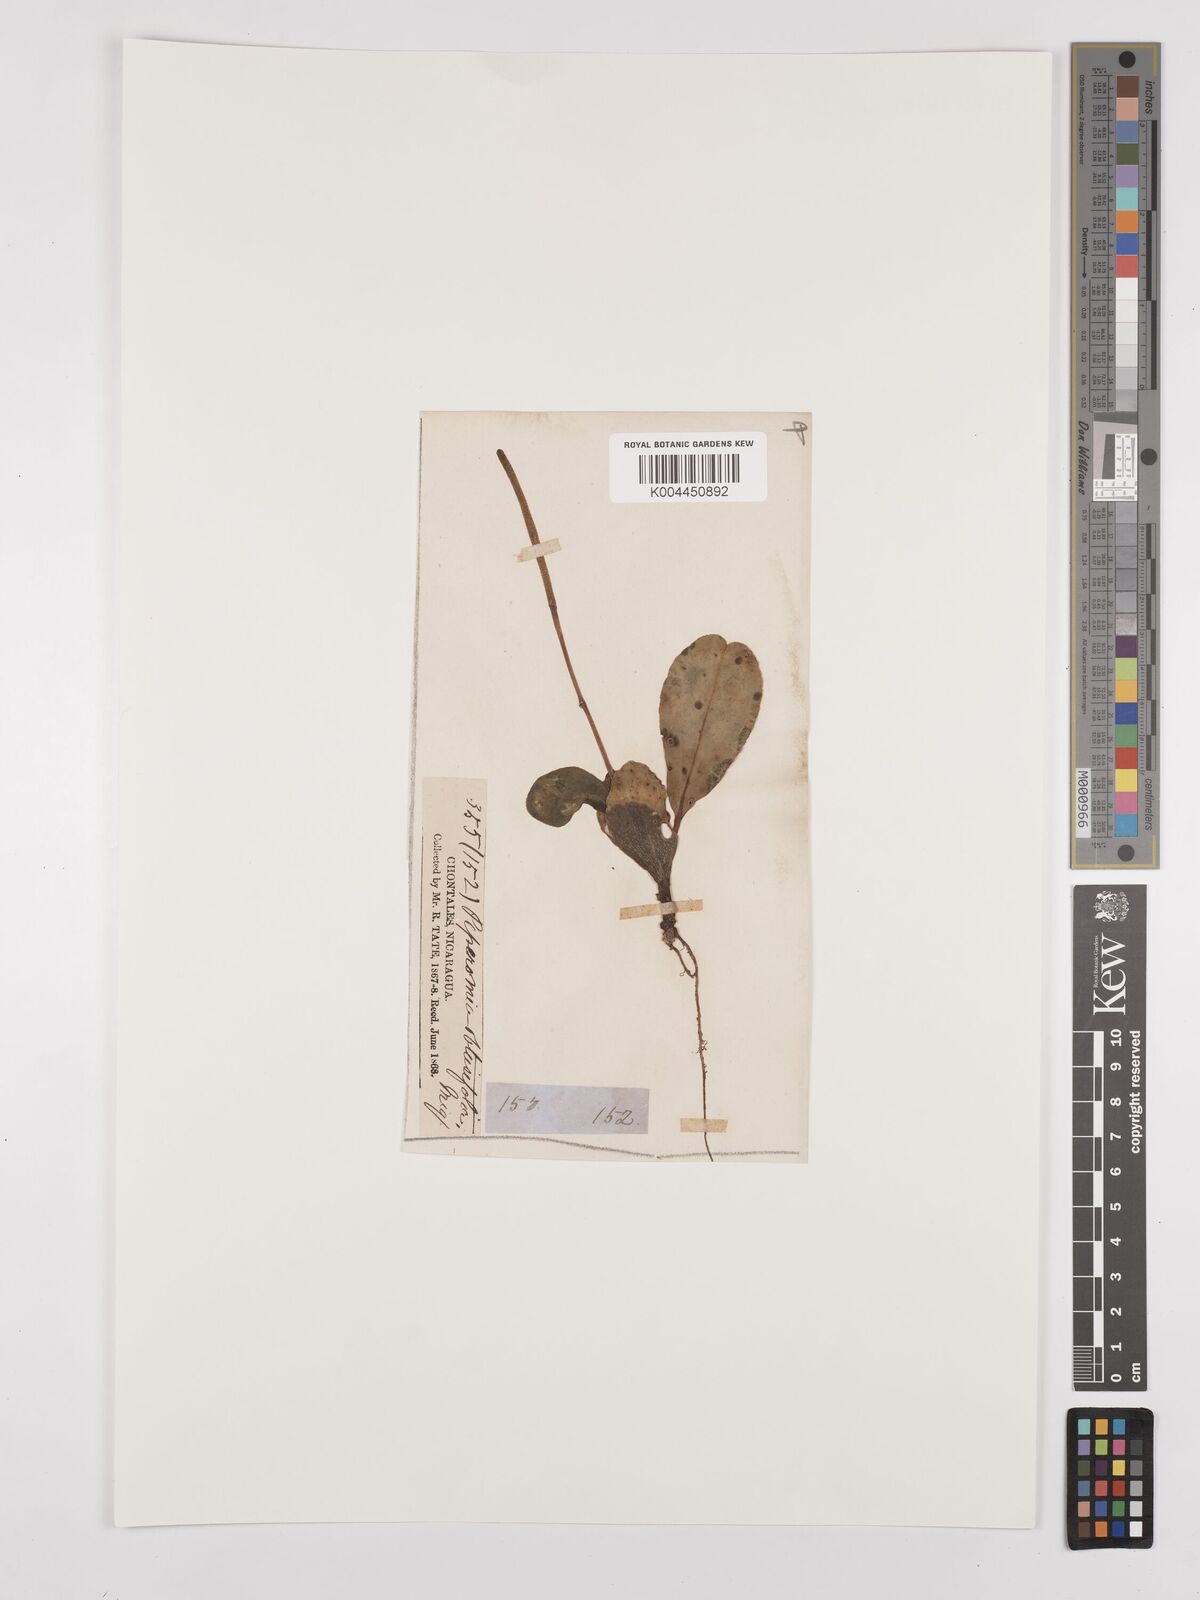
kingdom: Plantae
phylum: Tracheophyta
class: Magnoliopsida
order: Piperales
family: Piperaceae
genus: Peperomia
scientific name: Peperomia emarginulata
